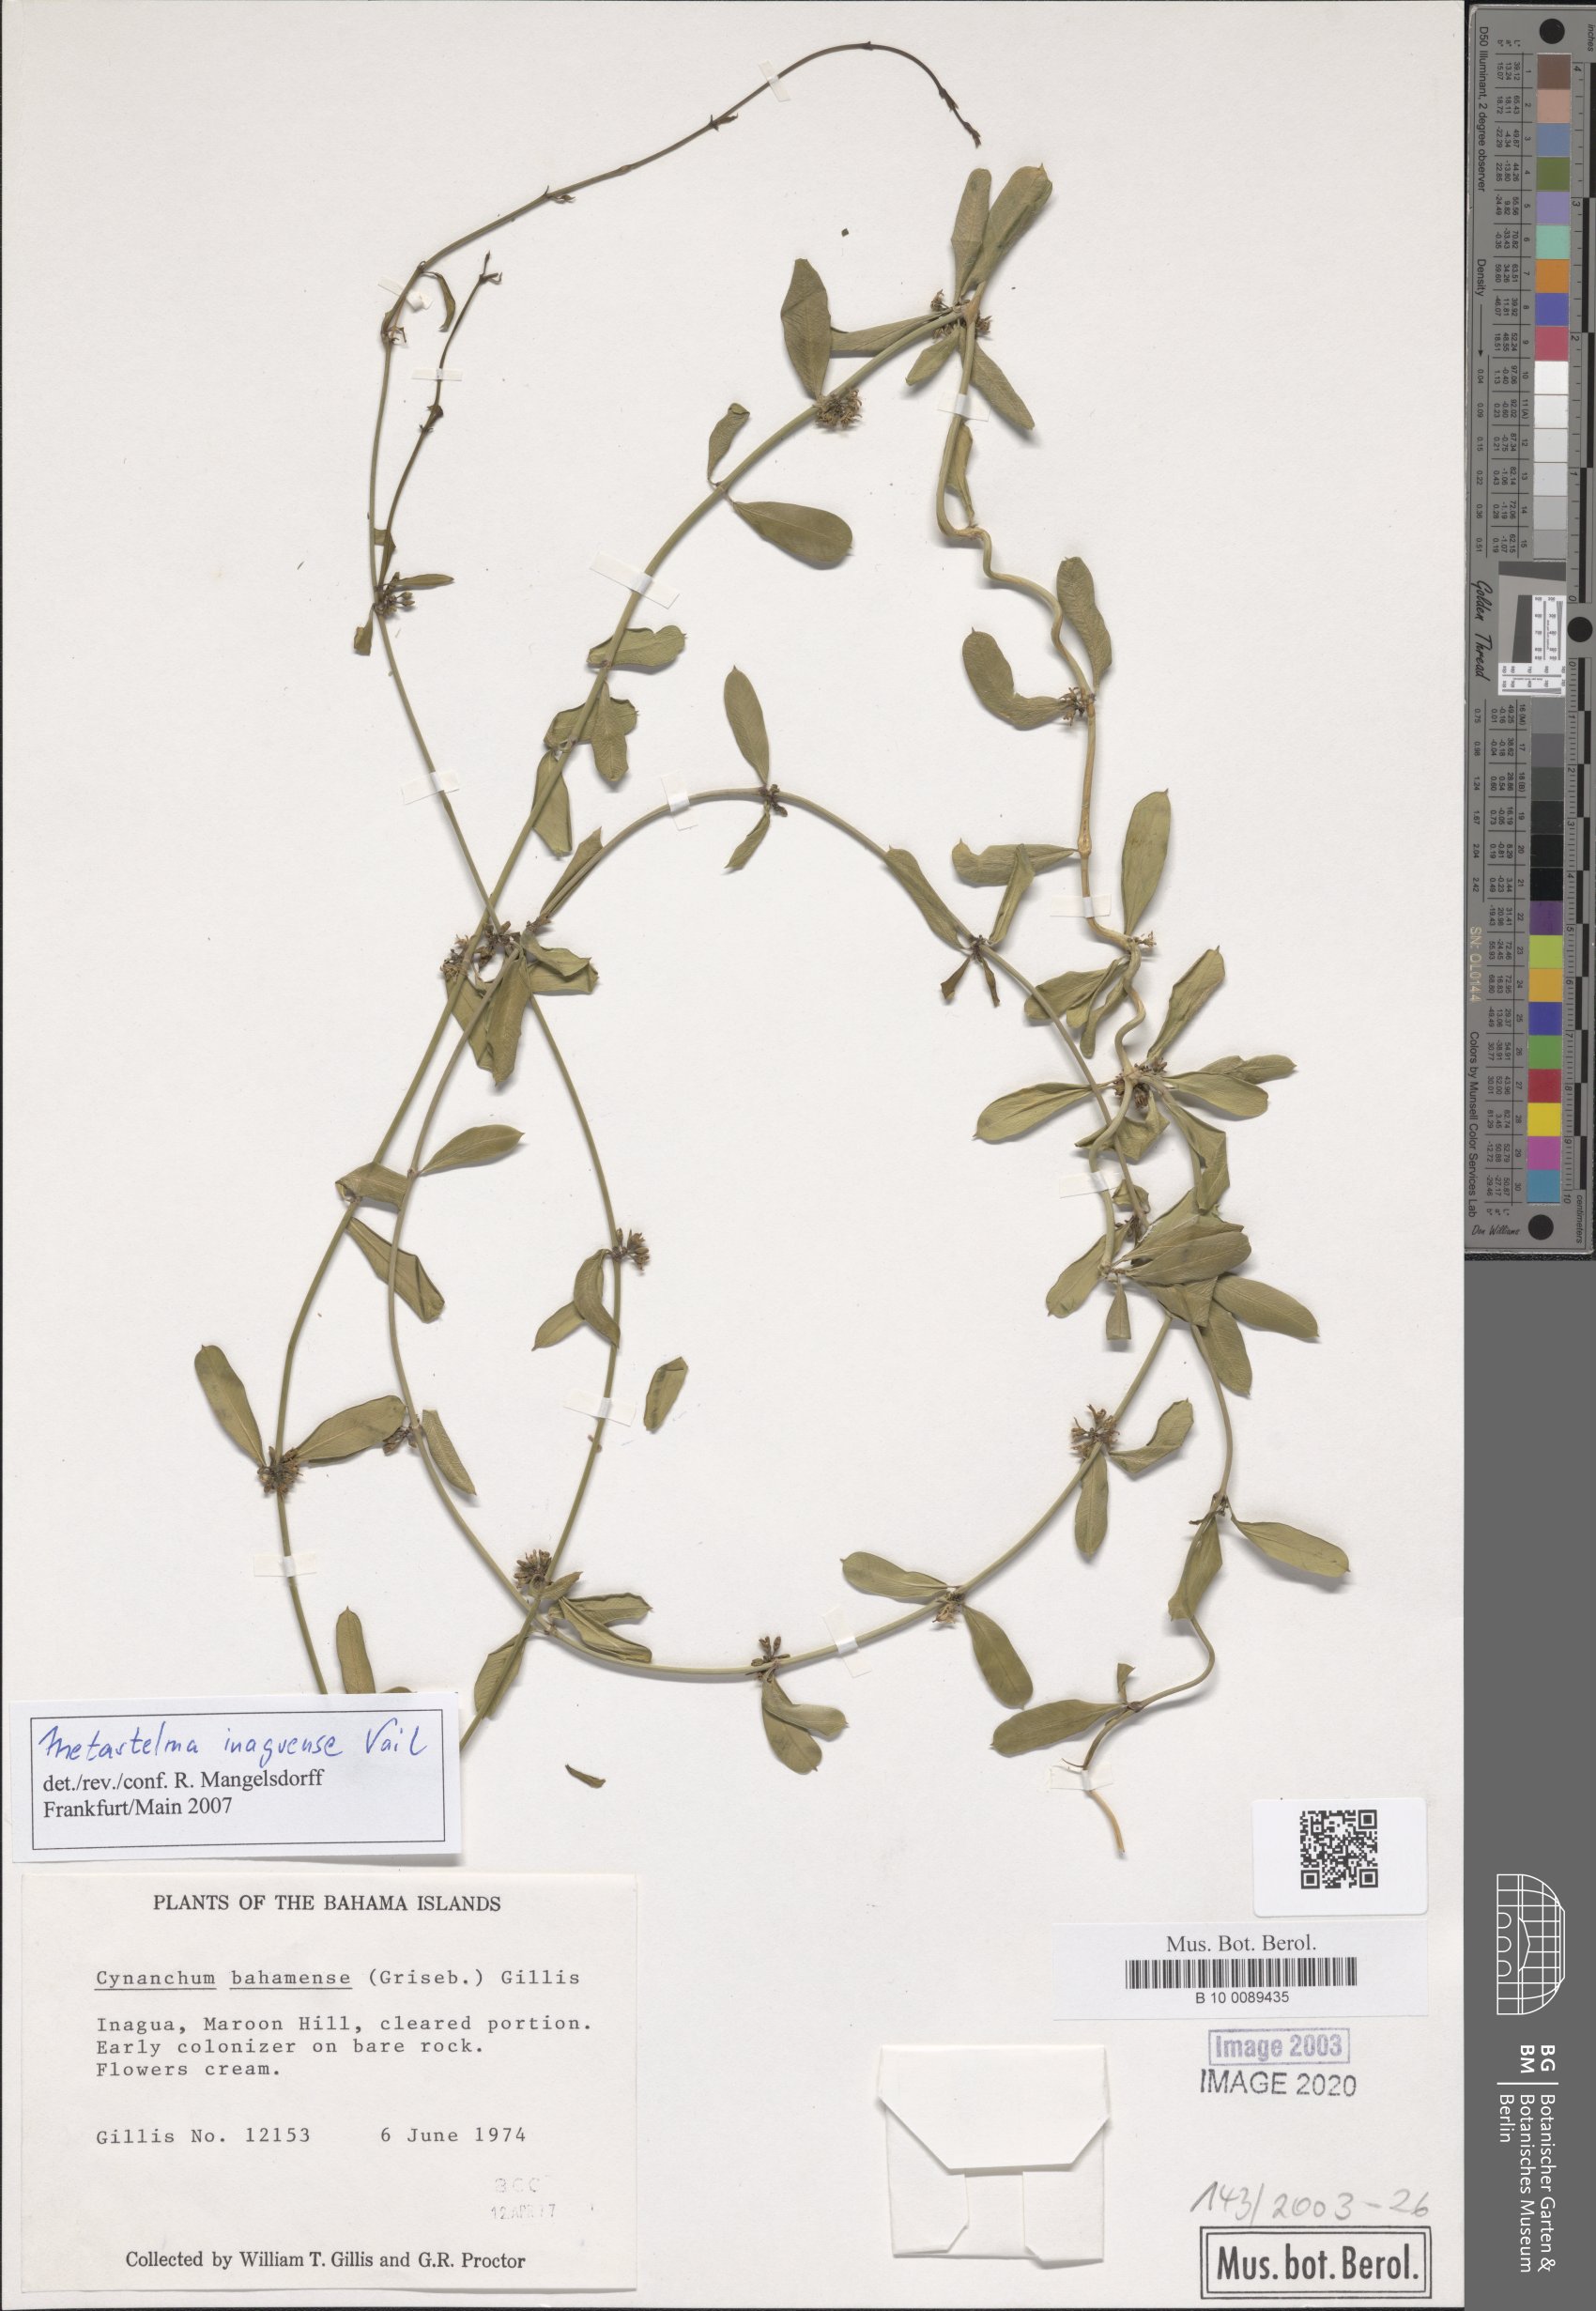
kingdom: Plantae
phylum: Tracheophyta
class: Magnoliopsida
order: Gentianales
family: Apocynaceae
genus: Metastelma
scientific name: Metastelma bahamense
